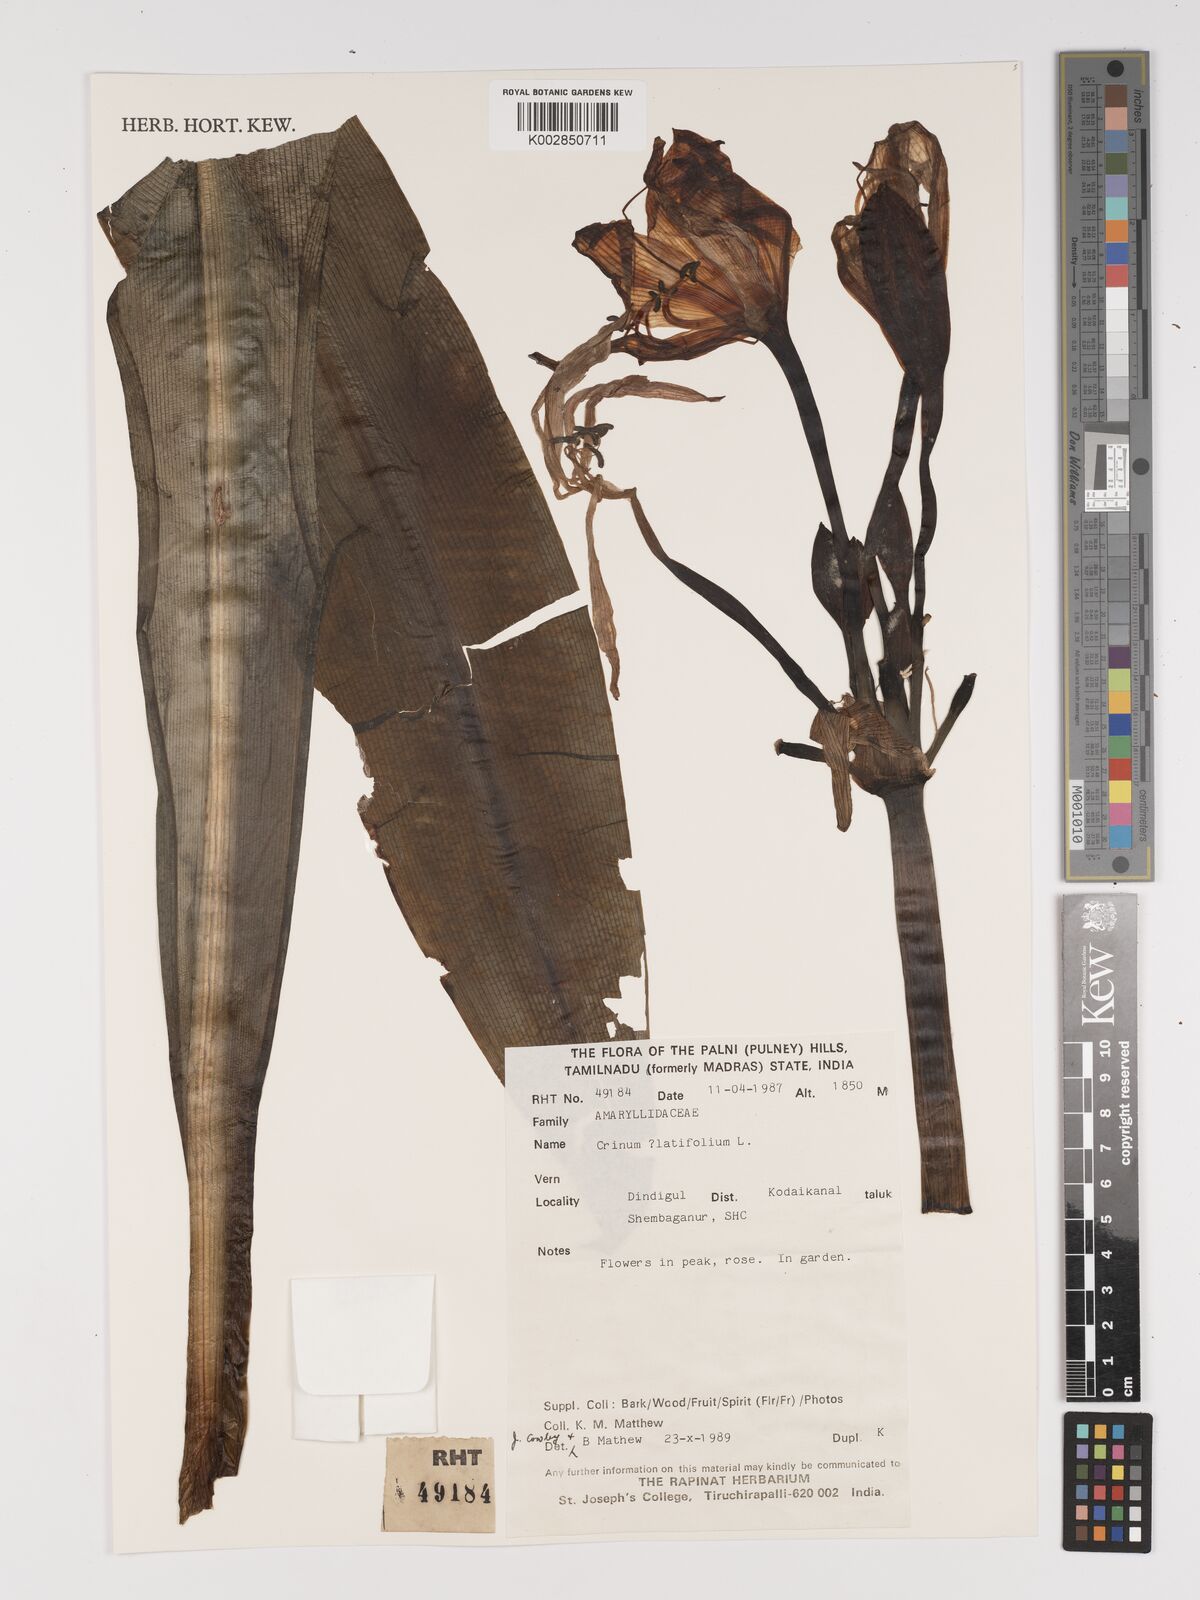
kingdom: Plantae
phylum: Tracheophyta
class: Liliopsida
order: Asparagales
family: Amaryllidaceae
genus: Crinum
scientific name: Crinum latifolium
